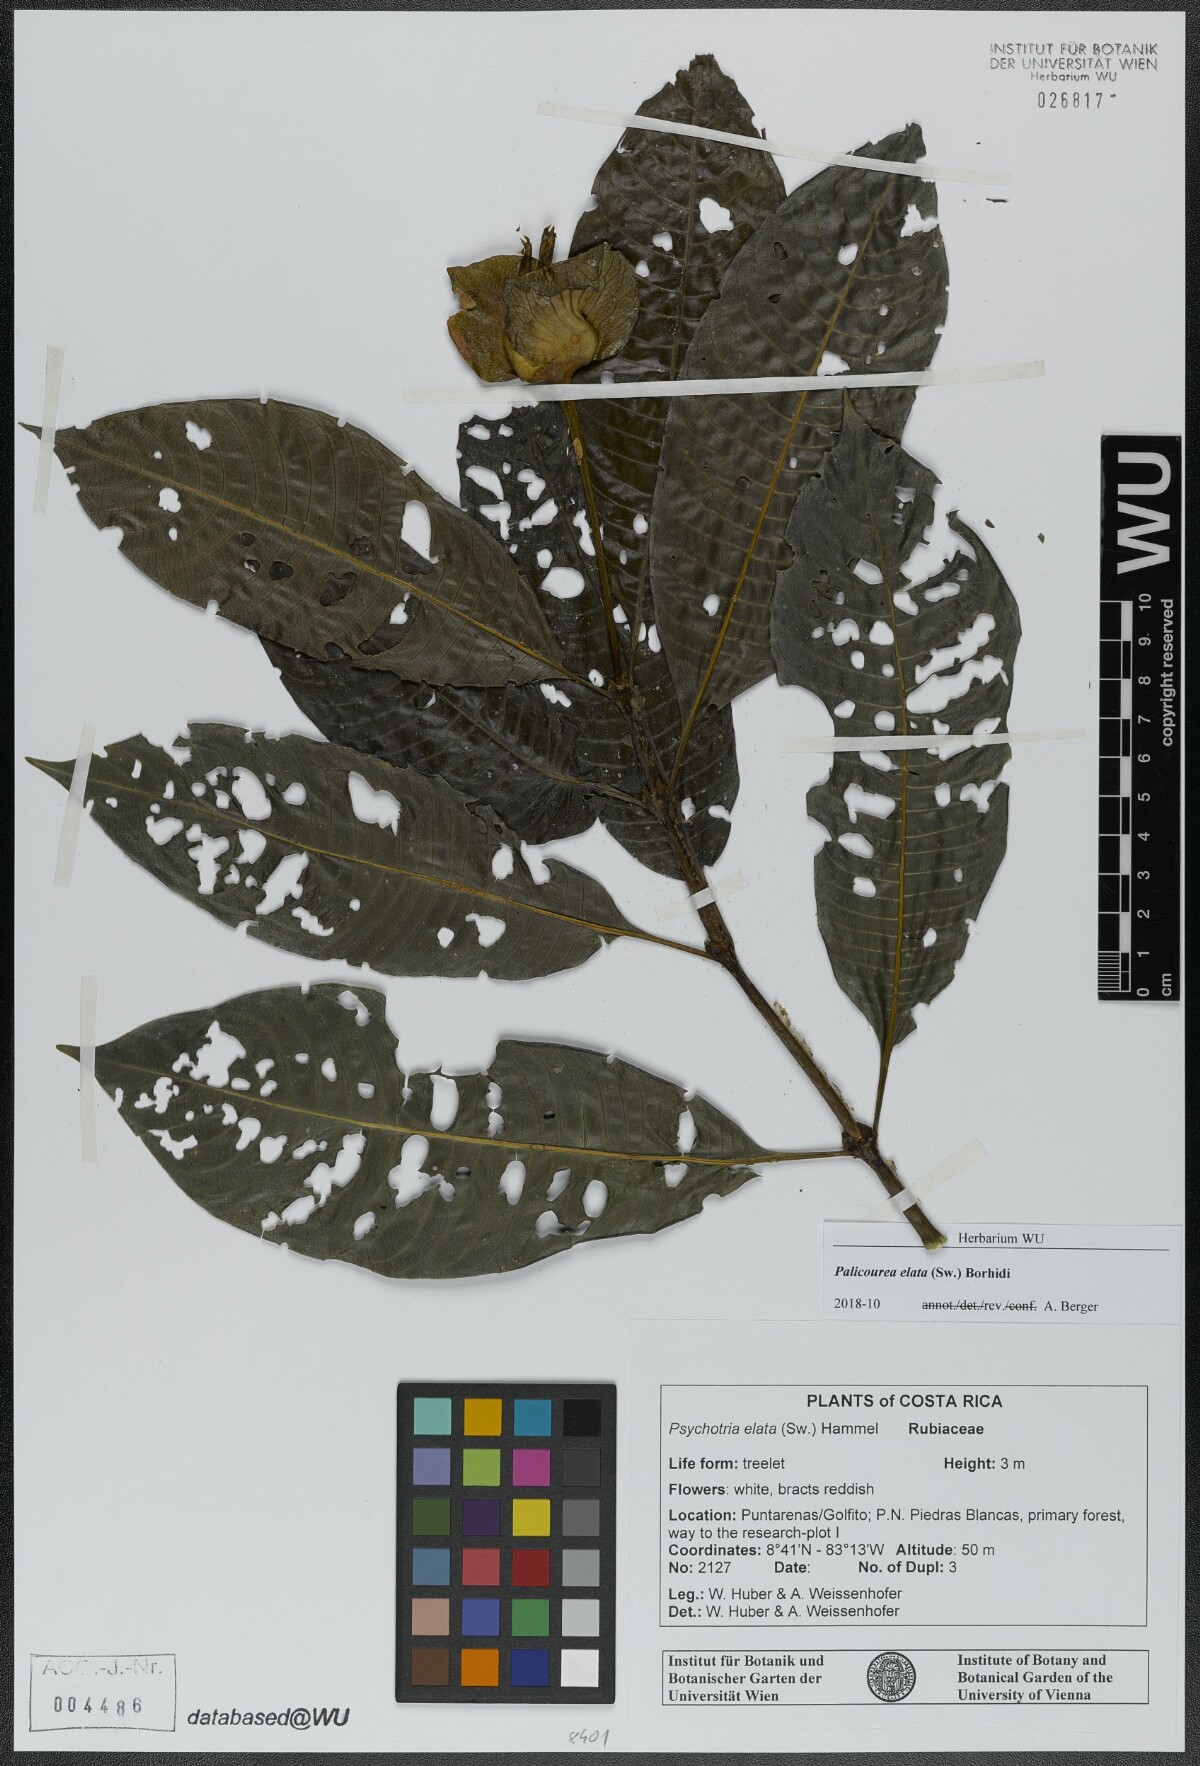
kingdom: Plantae
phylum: Tracheophyta
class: Magnoliopsida
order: Gentianales
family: Rubiaceae
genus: Palicourea
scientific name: Palicourea elata
